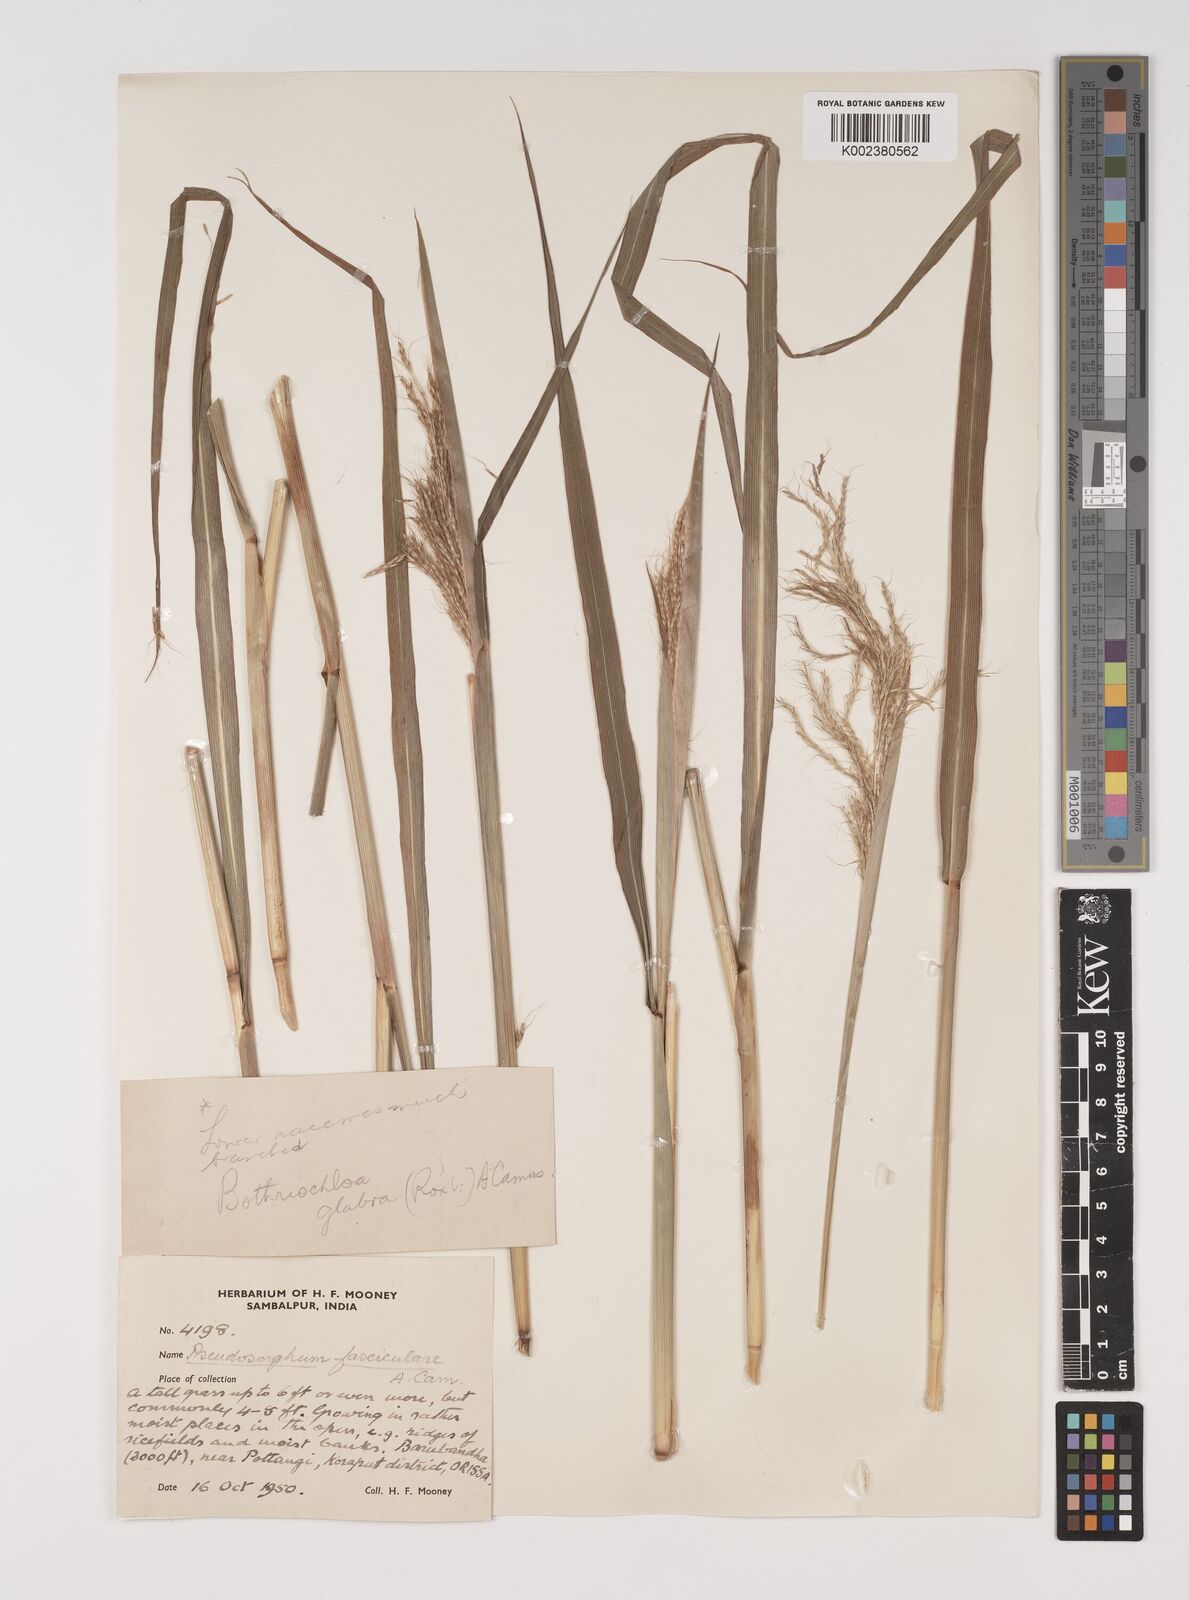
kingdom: Plantae
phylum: Tracheophyta
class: Liliopsida
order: Poales
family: Poaceae
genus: Bothriochloa
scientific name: Bothriochloa bladhii
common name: Caucasian bluestem
